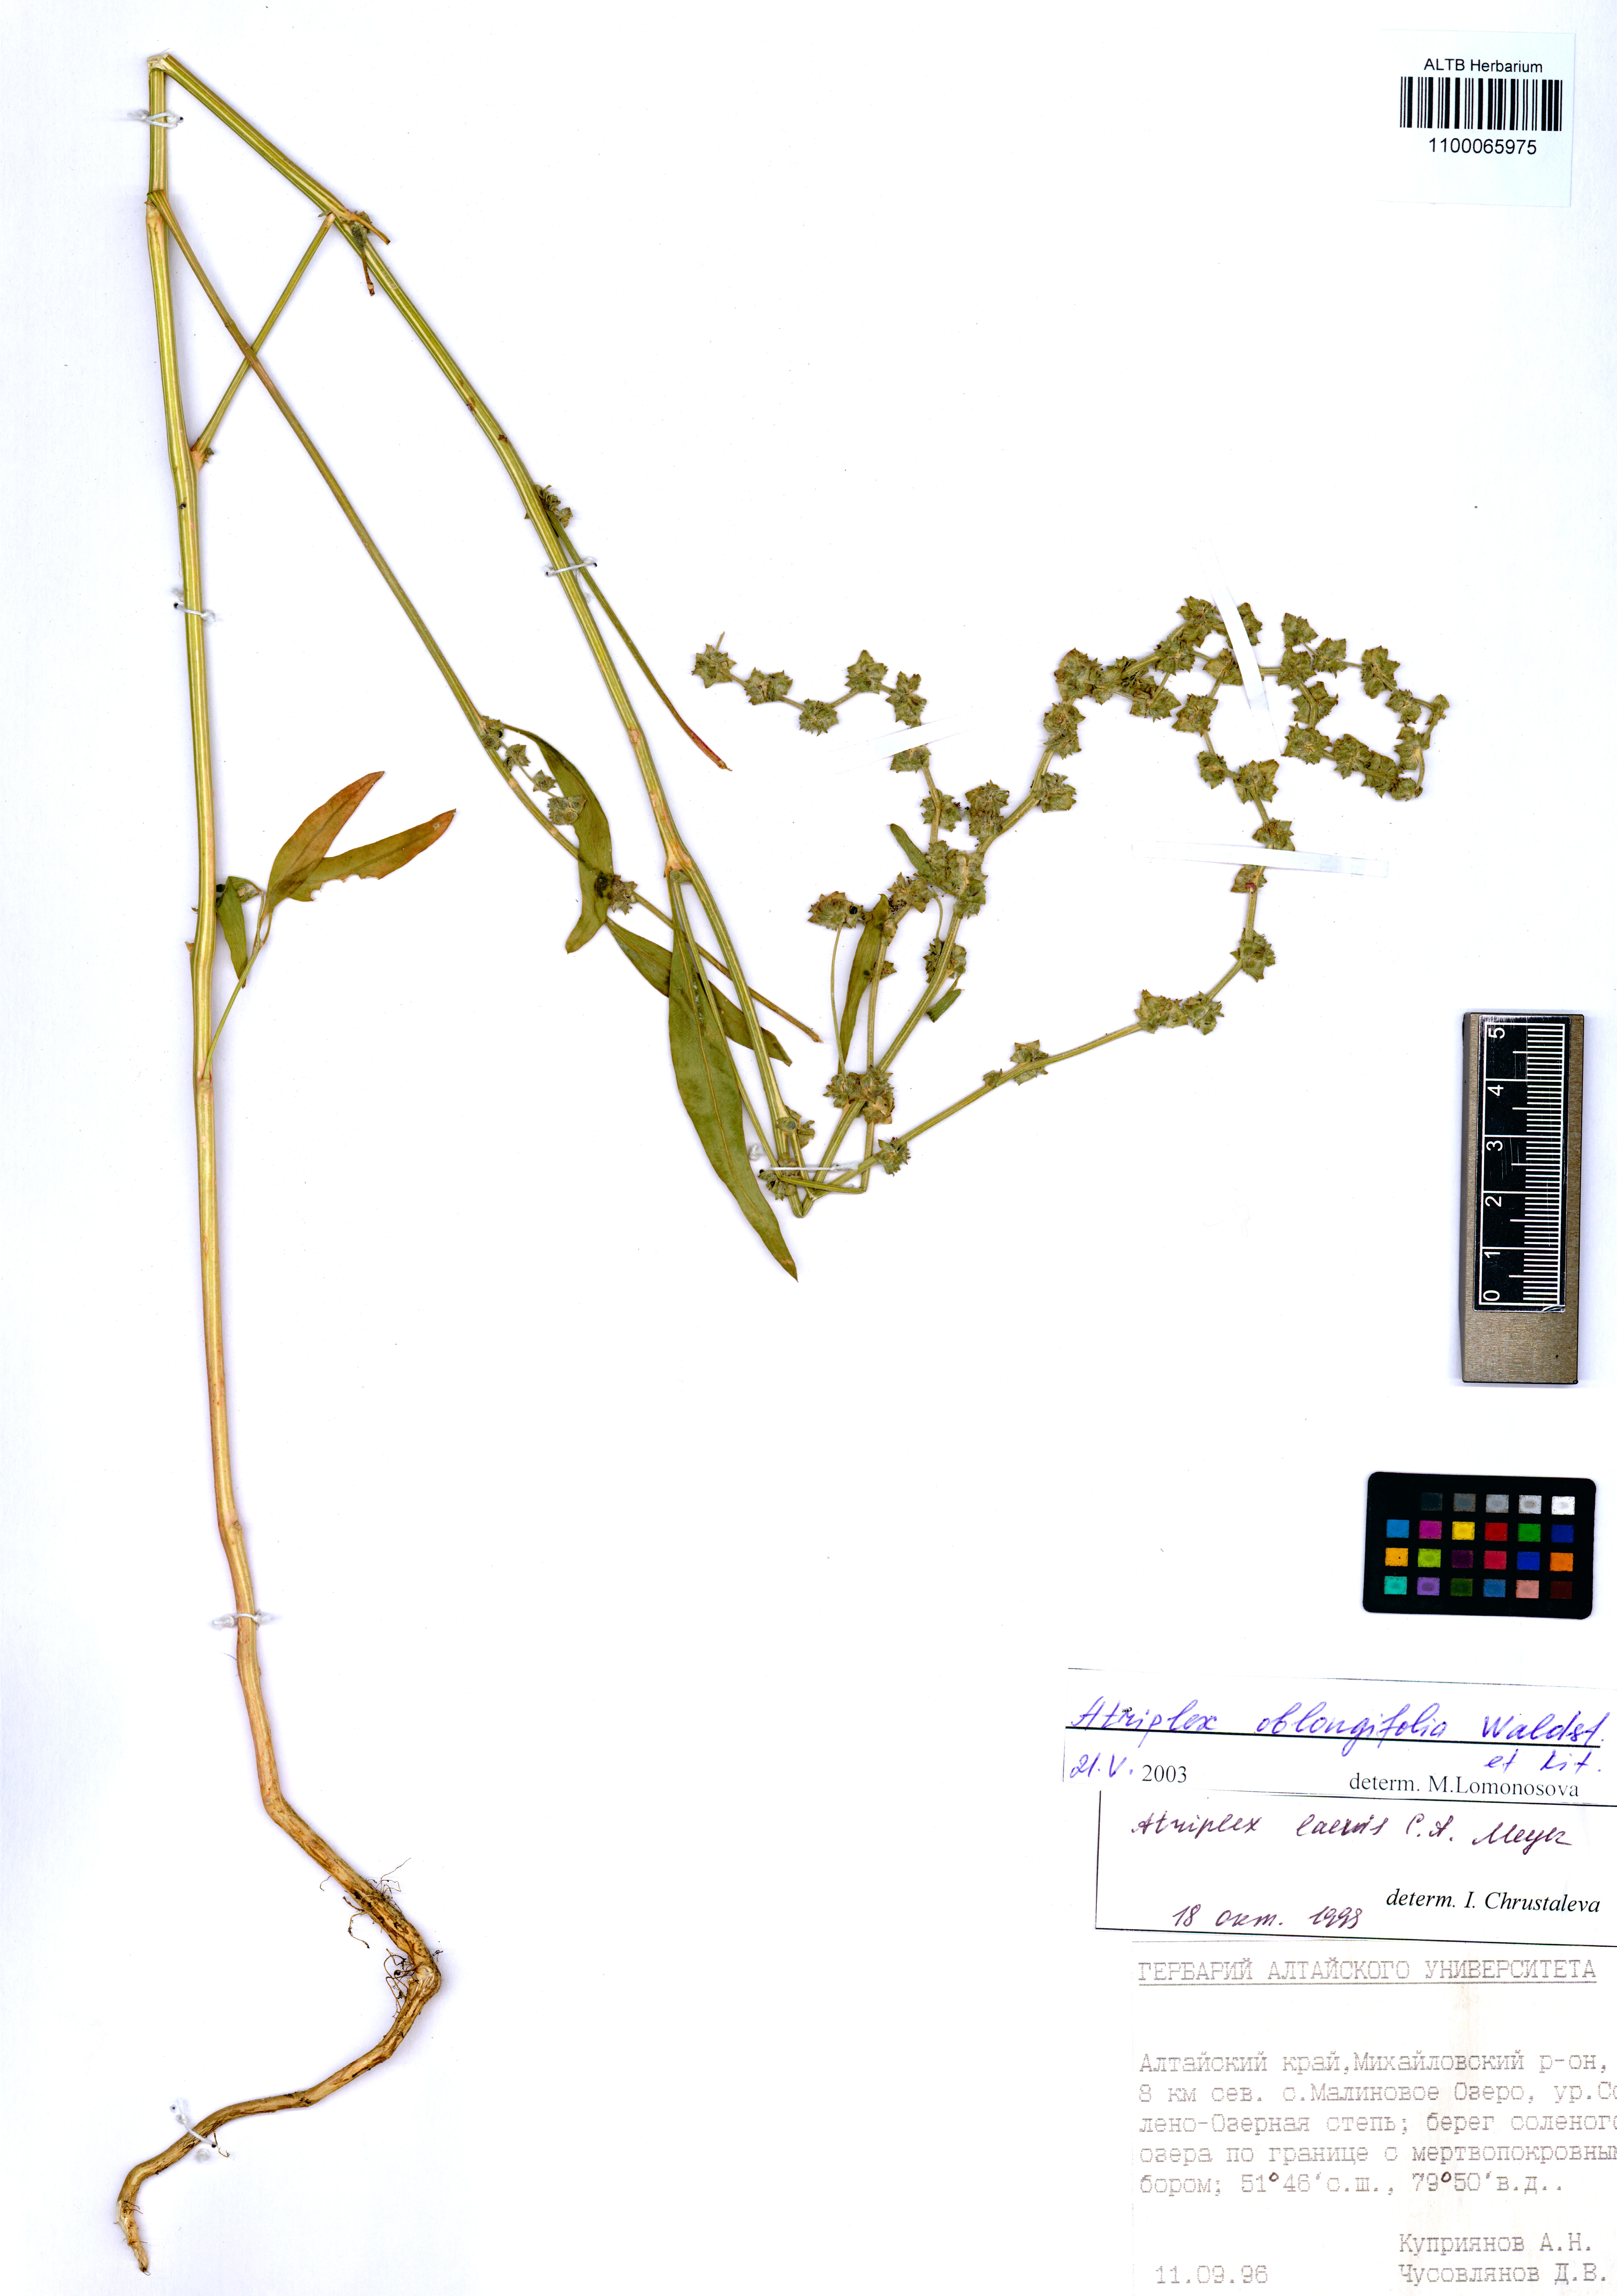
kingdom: Plantae
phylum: Tracheophyta
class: Magnoliopsida
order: Caryophyllales
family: Amaranthaceae
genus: Atriplex
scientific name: Atriplex oblongifolia
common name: Oblongleaf orache
